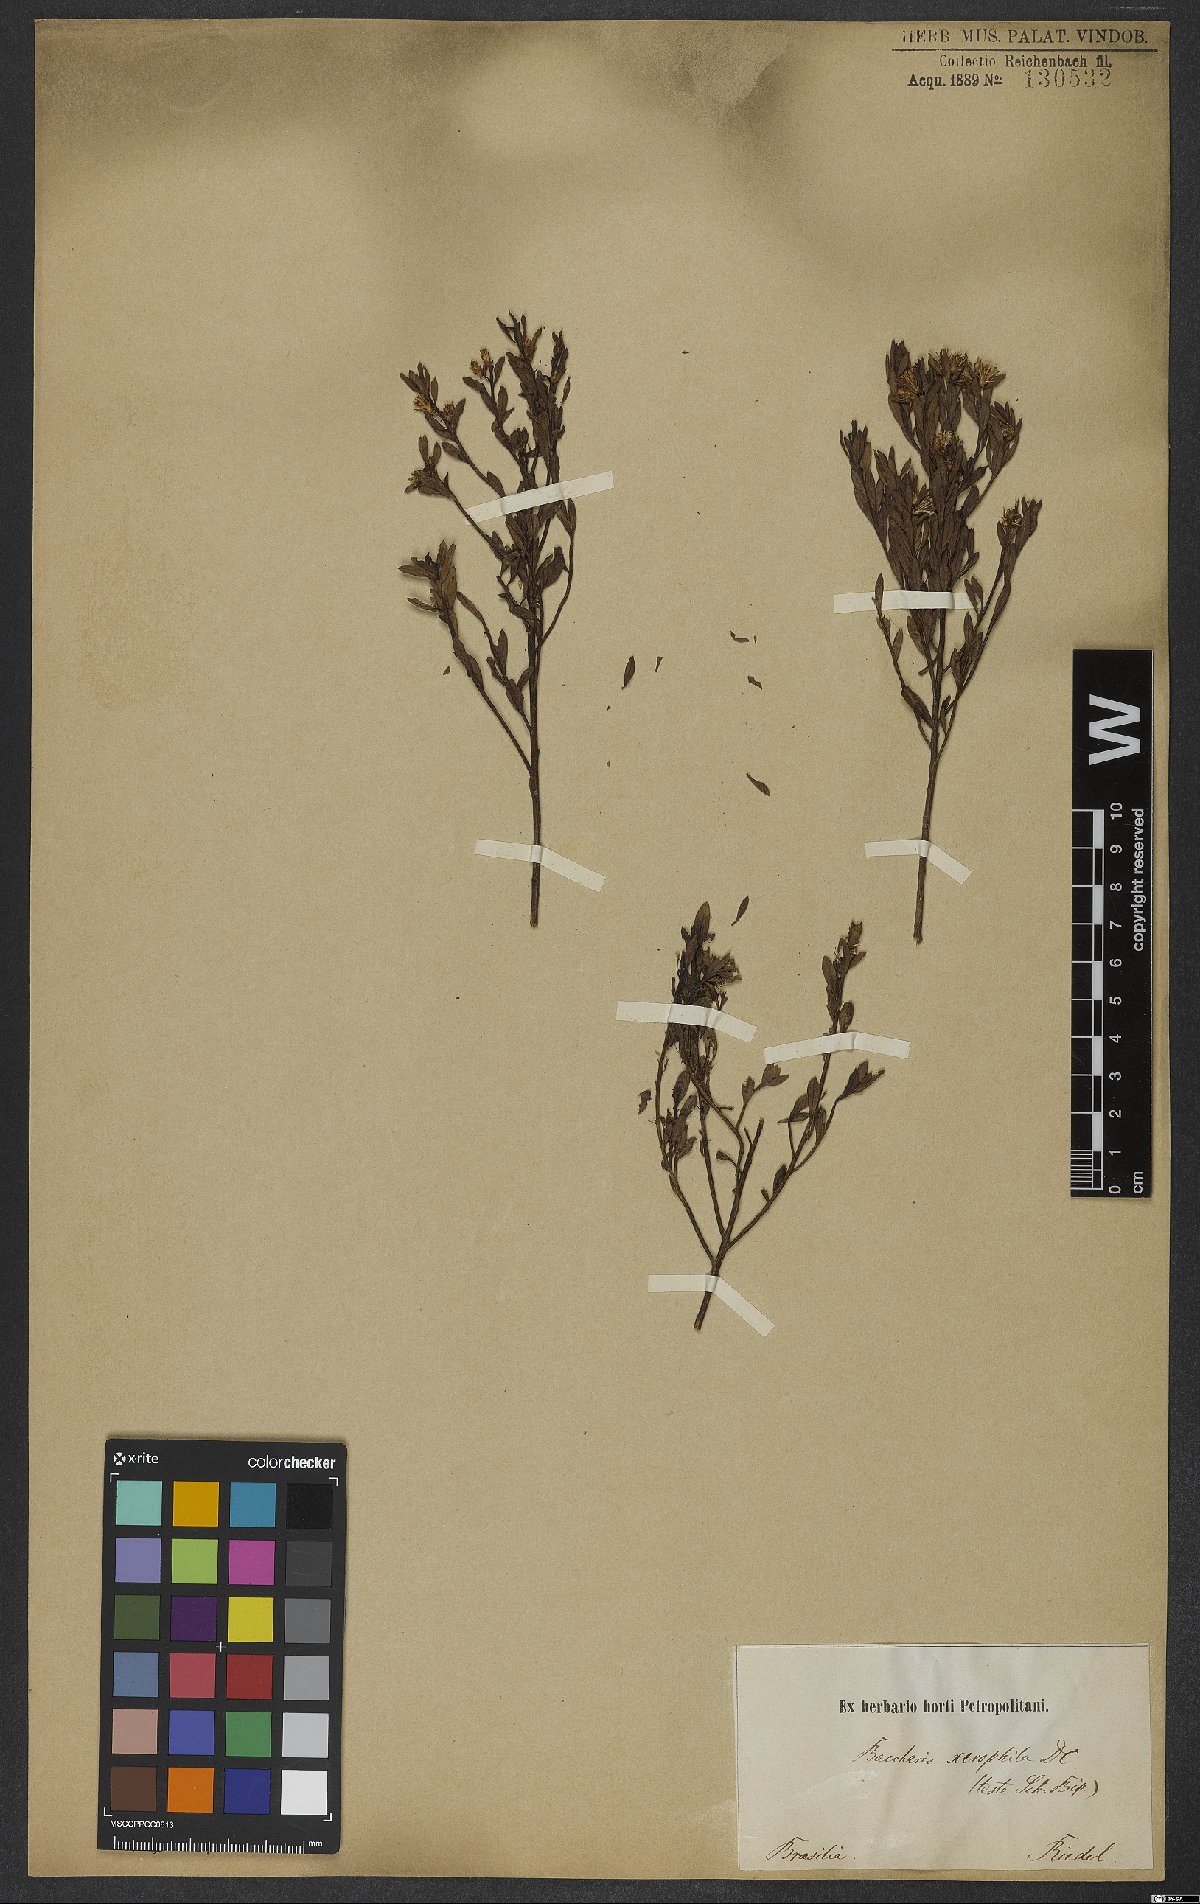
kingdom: Plantae
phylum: Tracheophyta
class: Magnoliopsida
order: Asterales
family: Asteraceae
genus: Baccharis
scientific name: Baccharis brevifolia
